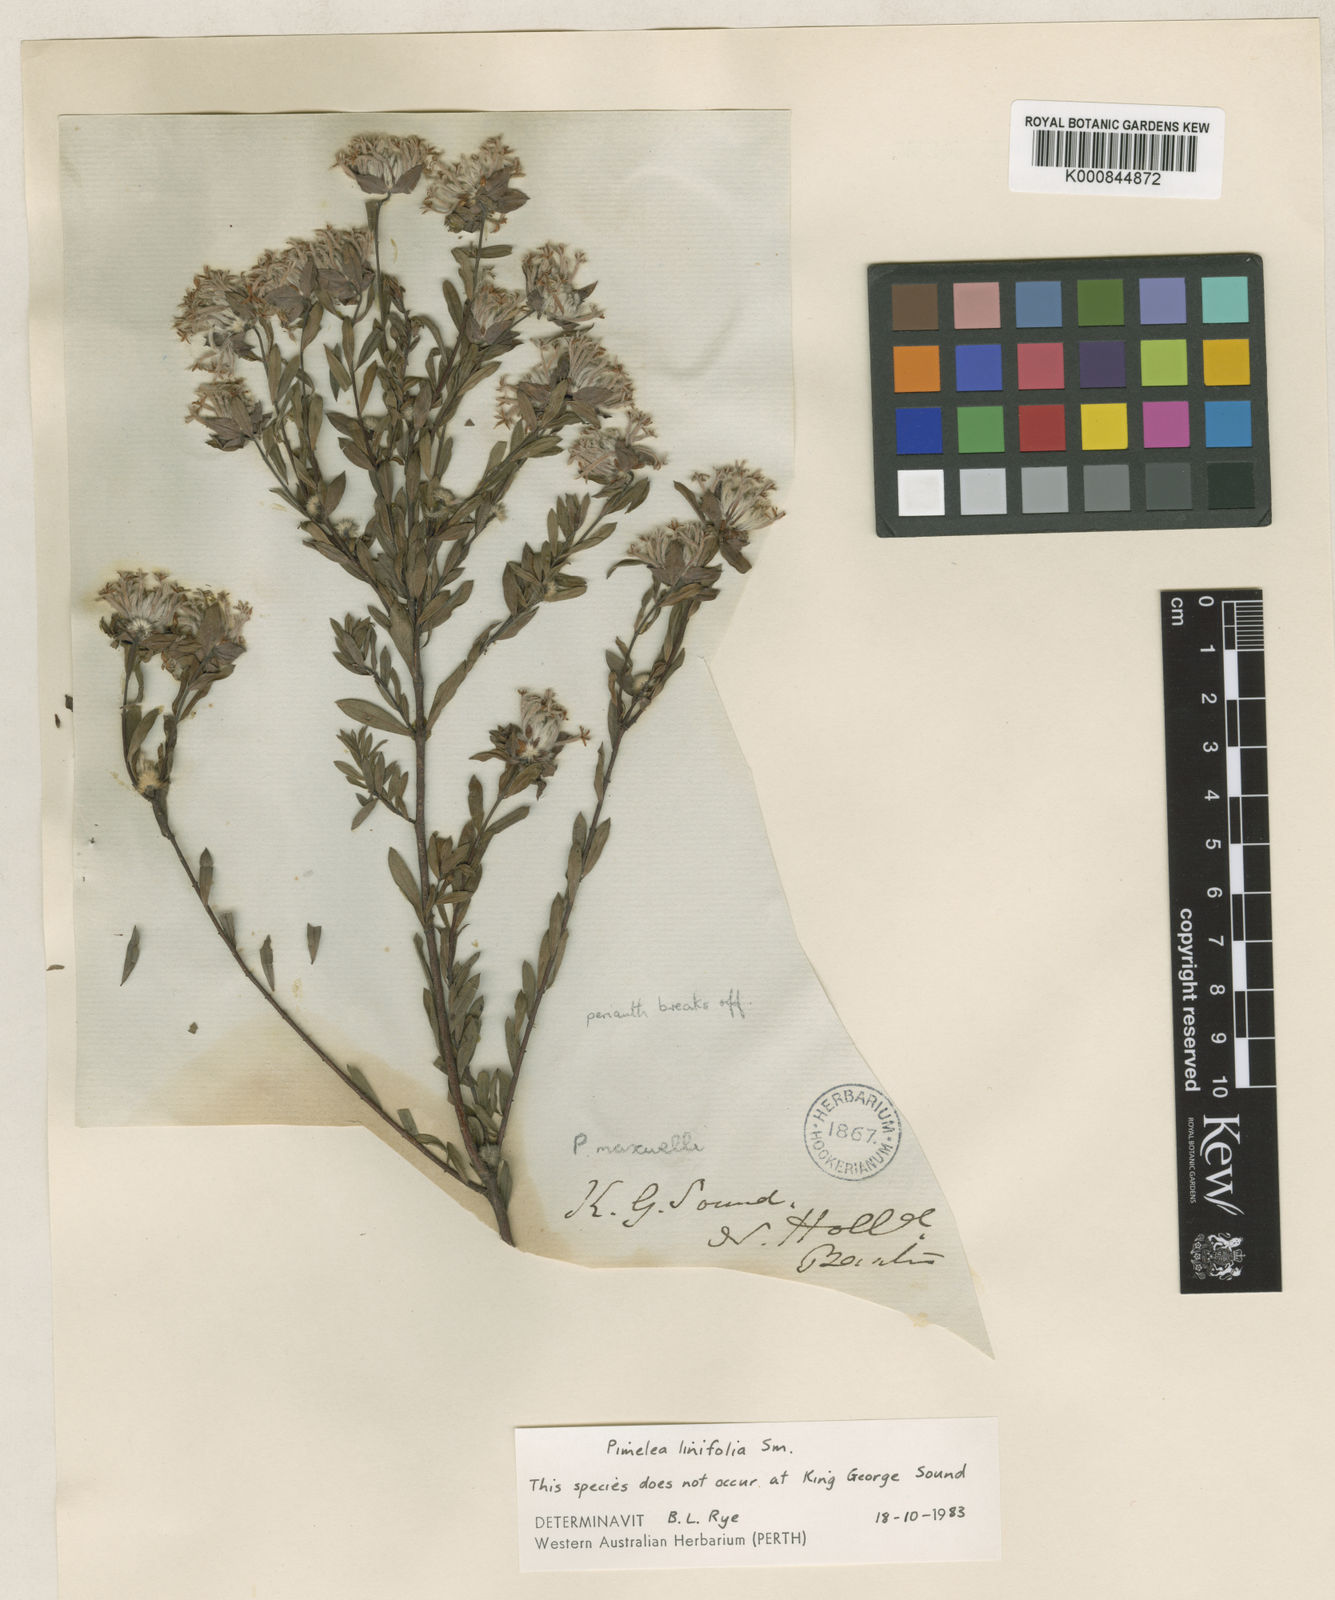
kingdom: Plantae
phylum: Tracheophyta
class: Magnoliopsida
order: Malvales
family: Thymelaeaceae
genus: Pimelea
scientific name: Pimelea brevifolia
